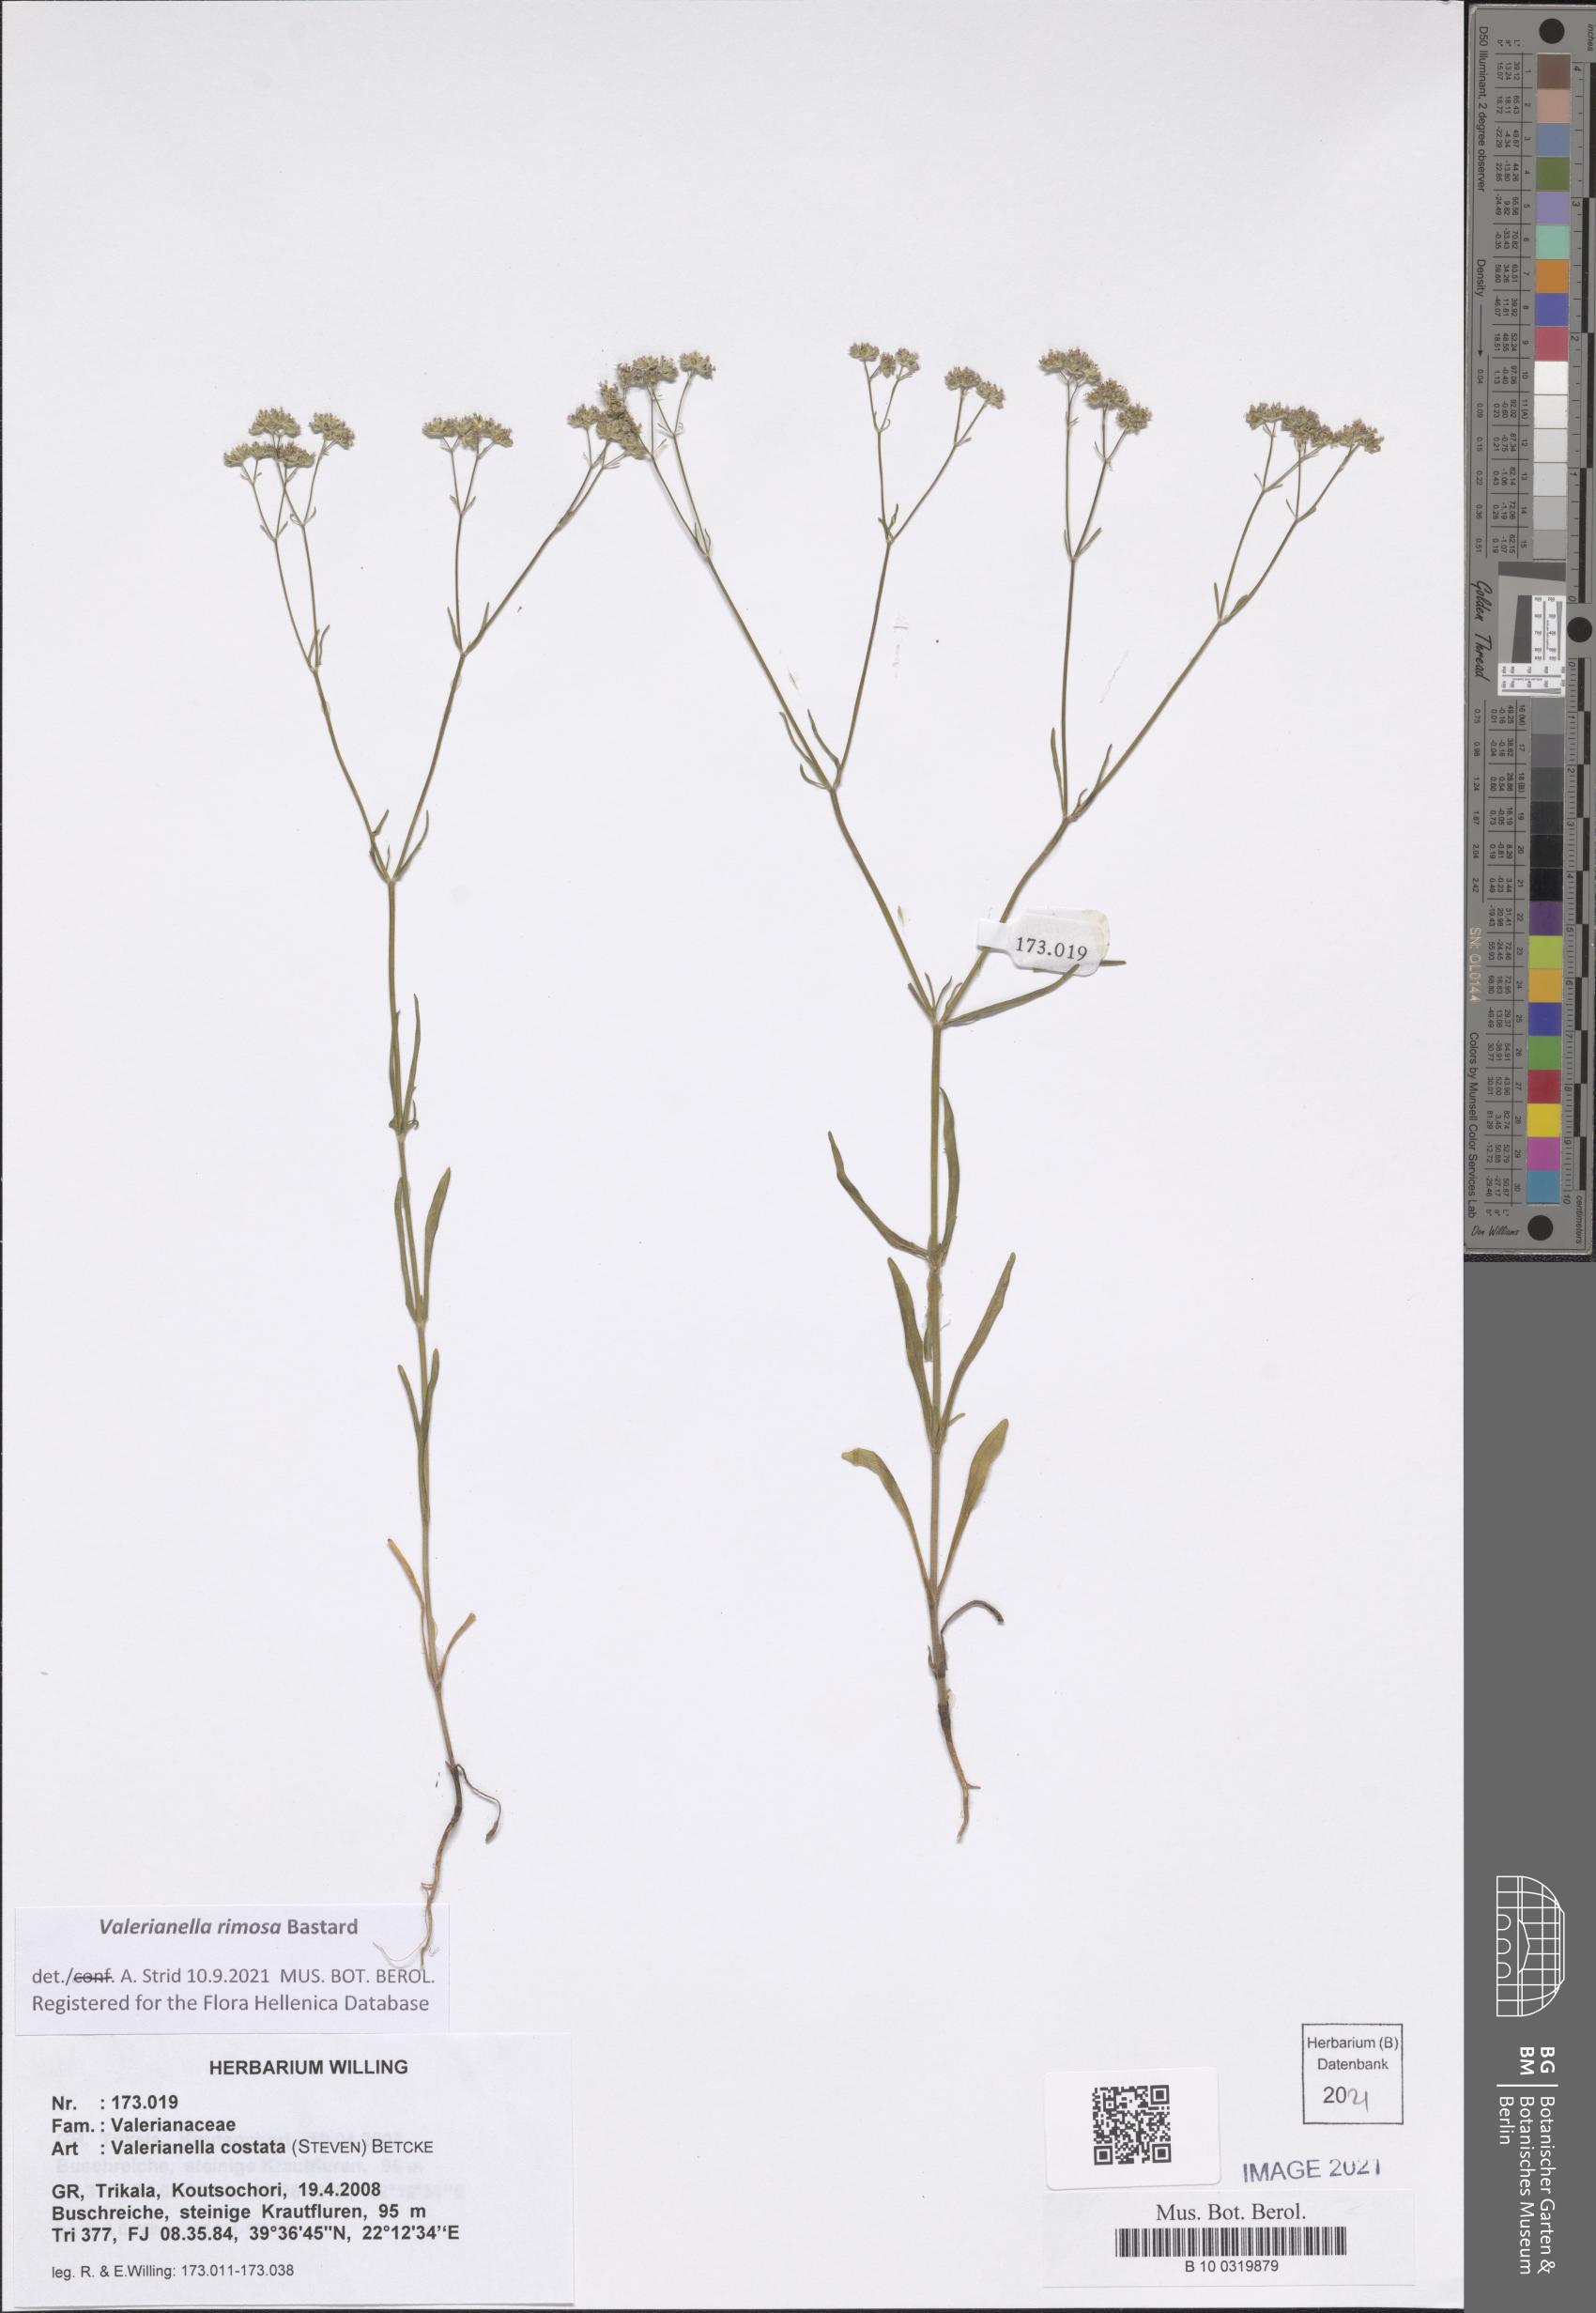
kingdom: Plantae
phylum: Tracheophyta
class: Magnoliopsida
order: Dipsacales
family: Caprifoliaceae
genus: Valerianella
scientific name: Valerianella rimosa
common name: Broad-fruited cornsalad
